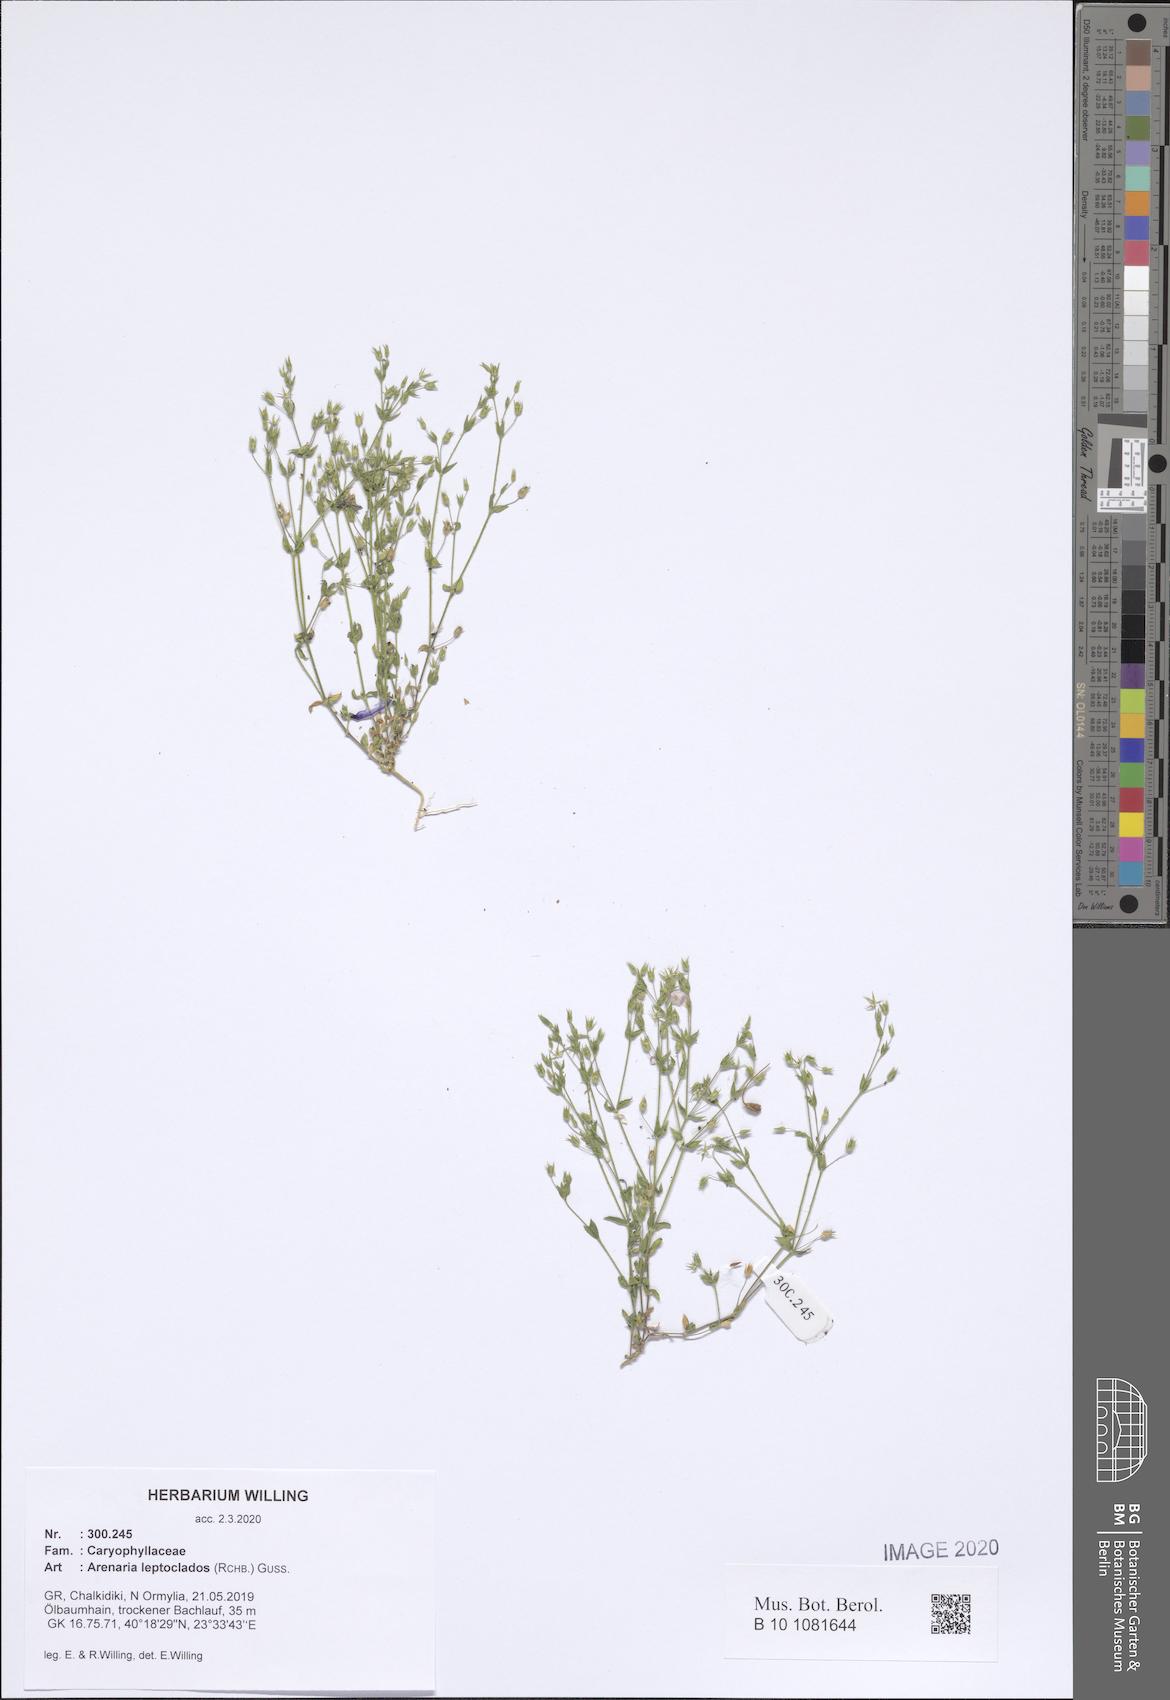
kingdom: Plantae
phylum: Tracheophyta
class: Magnoliopsida
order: Caryophyllales
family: Caryophyllaceae
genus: Arenaria
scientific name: Arenaria leptoclados
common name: Thyme-leaved sandwort
